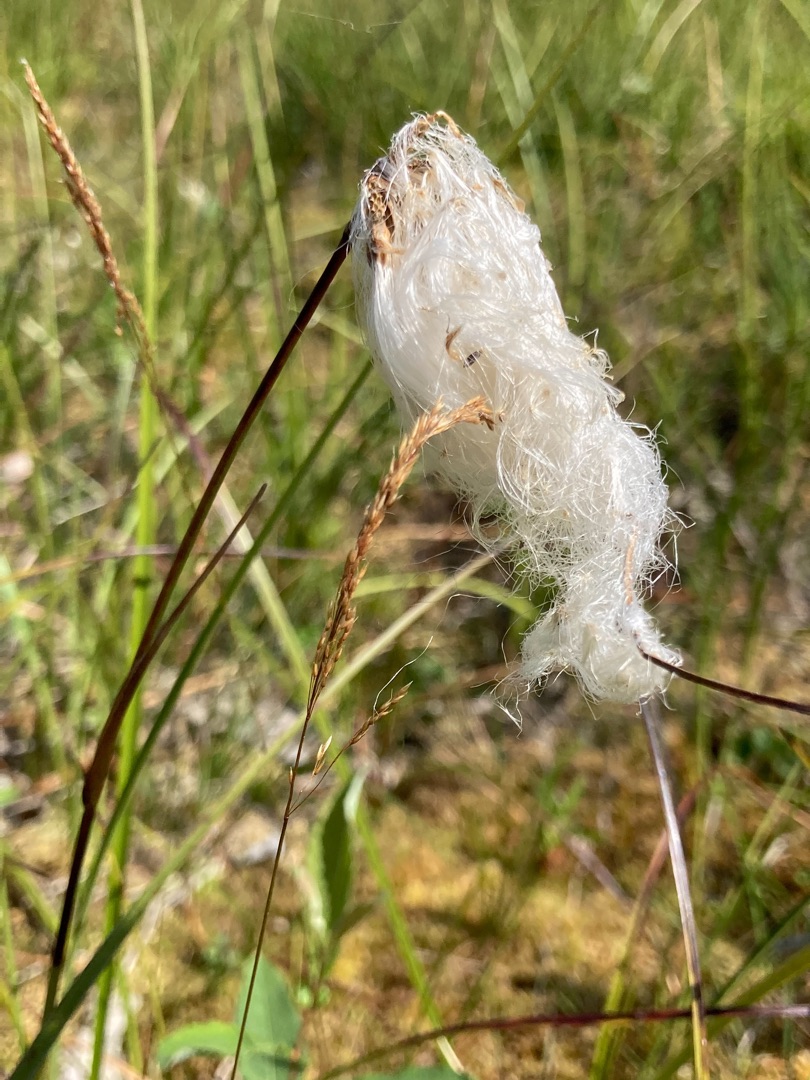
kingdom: Plantae
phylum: Tracheophyta
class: Liliopsida
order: Poales
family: Cyperaceae
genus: Eriophorum
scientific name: Eriophorum angustifolium
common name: Smalbladet kæruld
